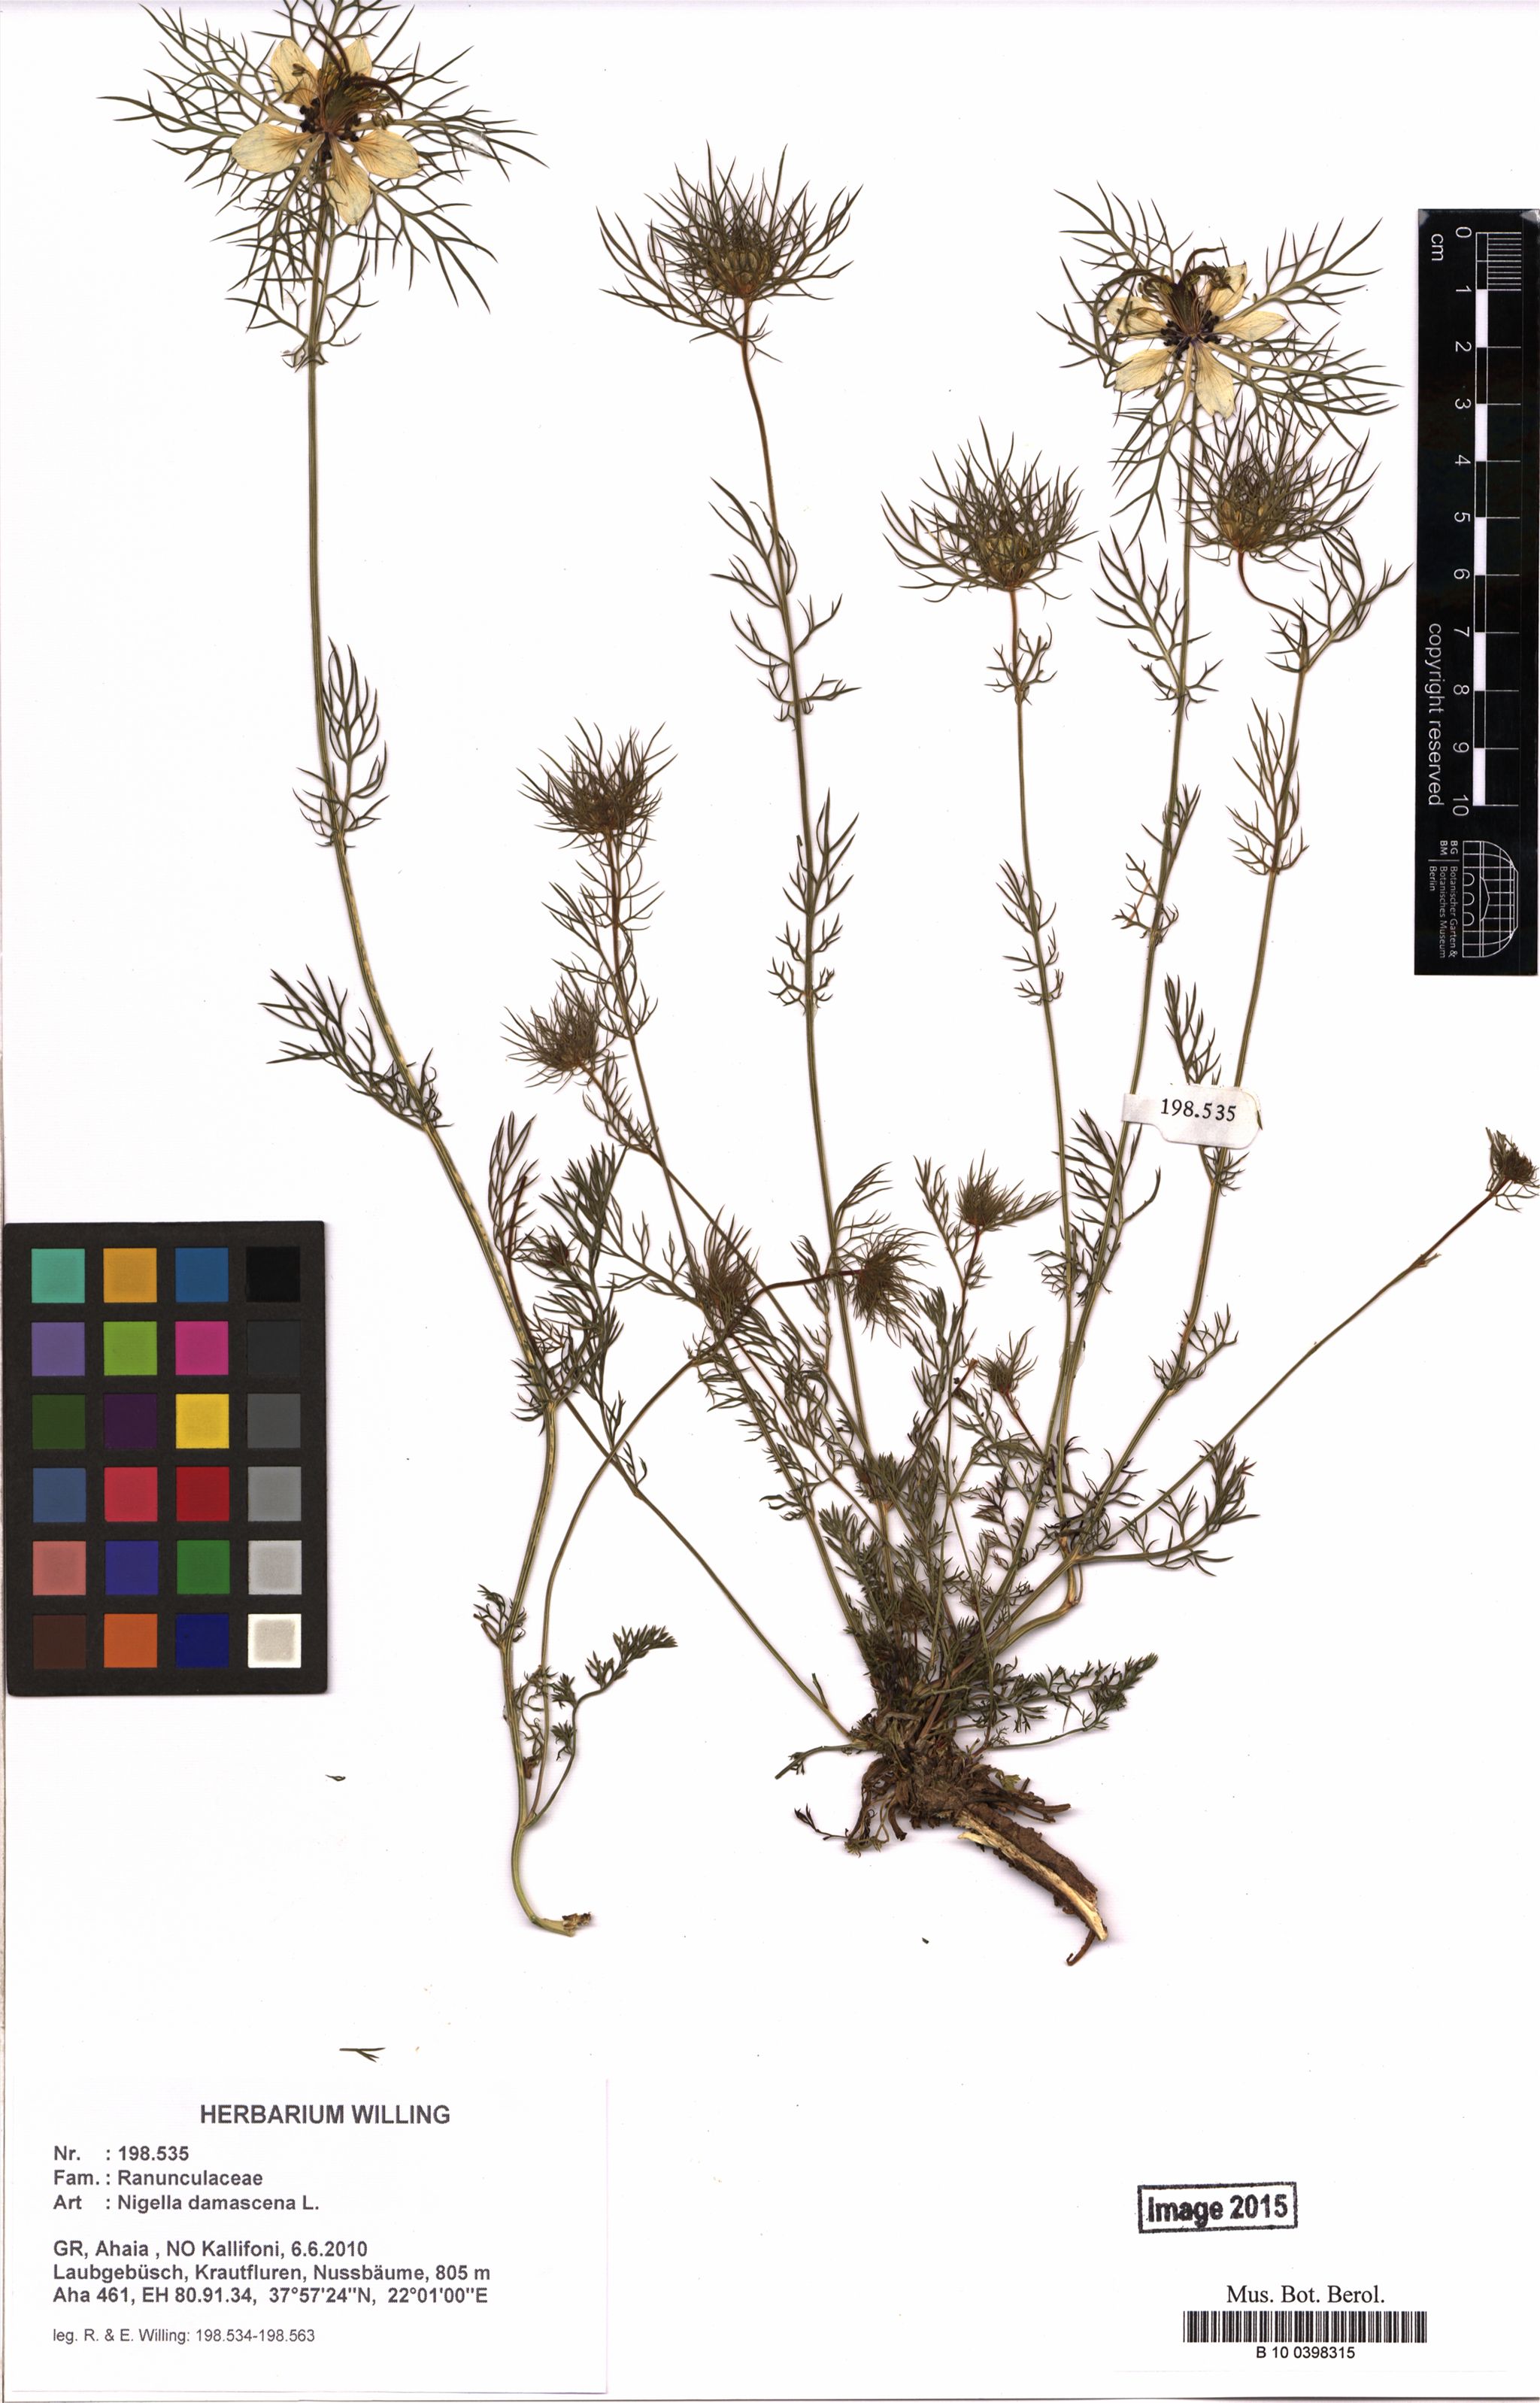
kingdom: Plantae
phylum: Tracheophyta
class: Magnoliopsida
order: Ranunculales
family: Ranunculaceae
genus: Nigella
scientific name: Nigella damascena
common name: Love-in-a-mist
